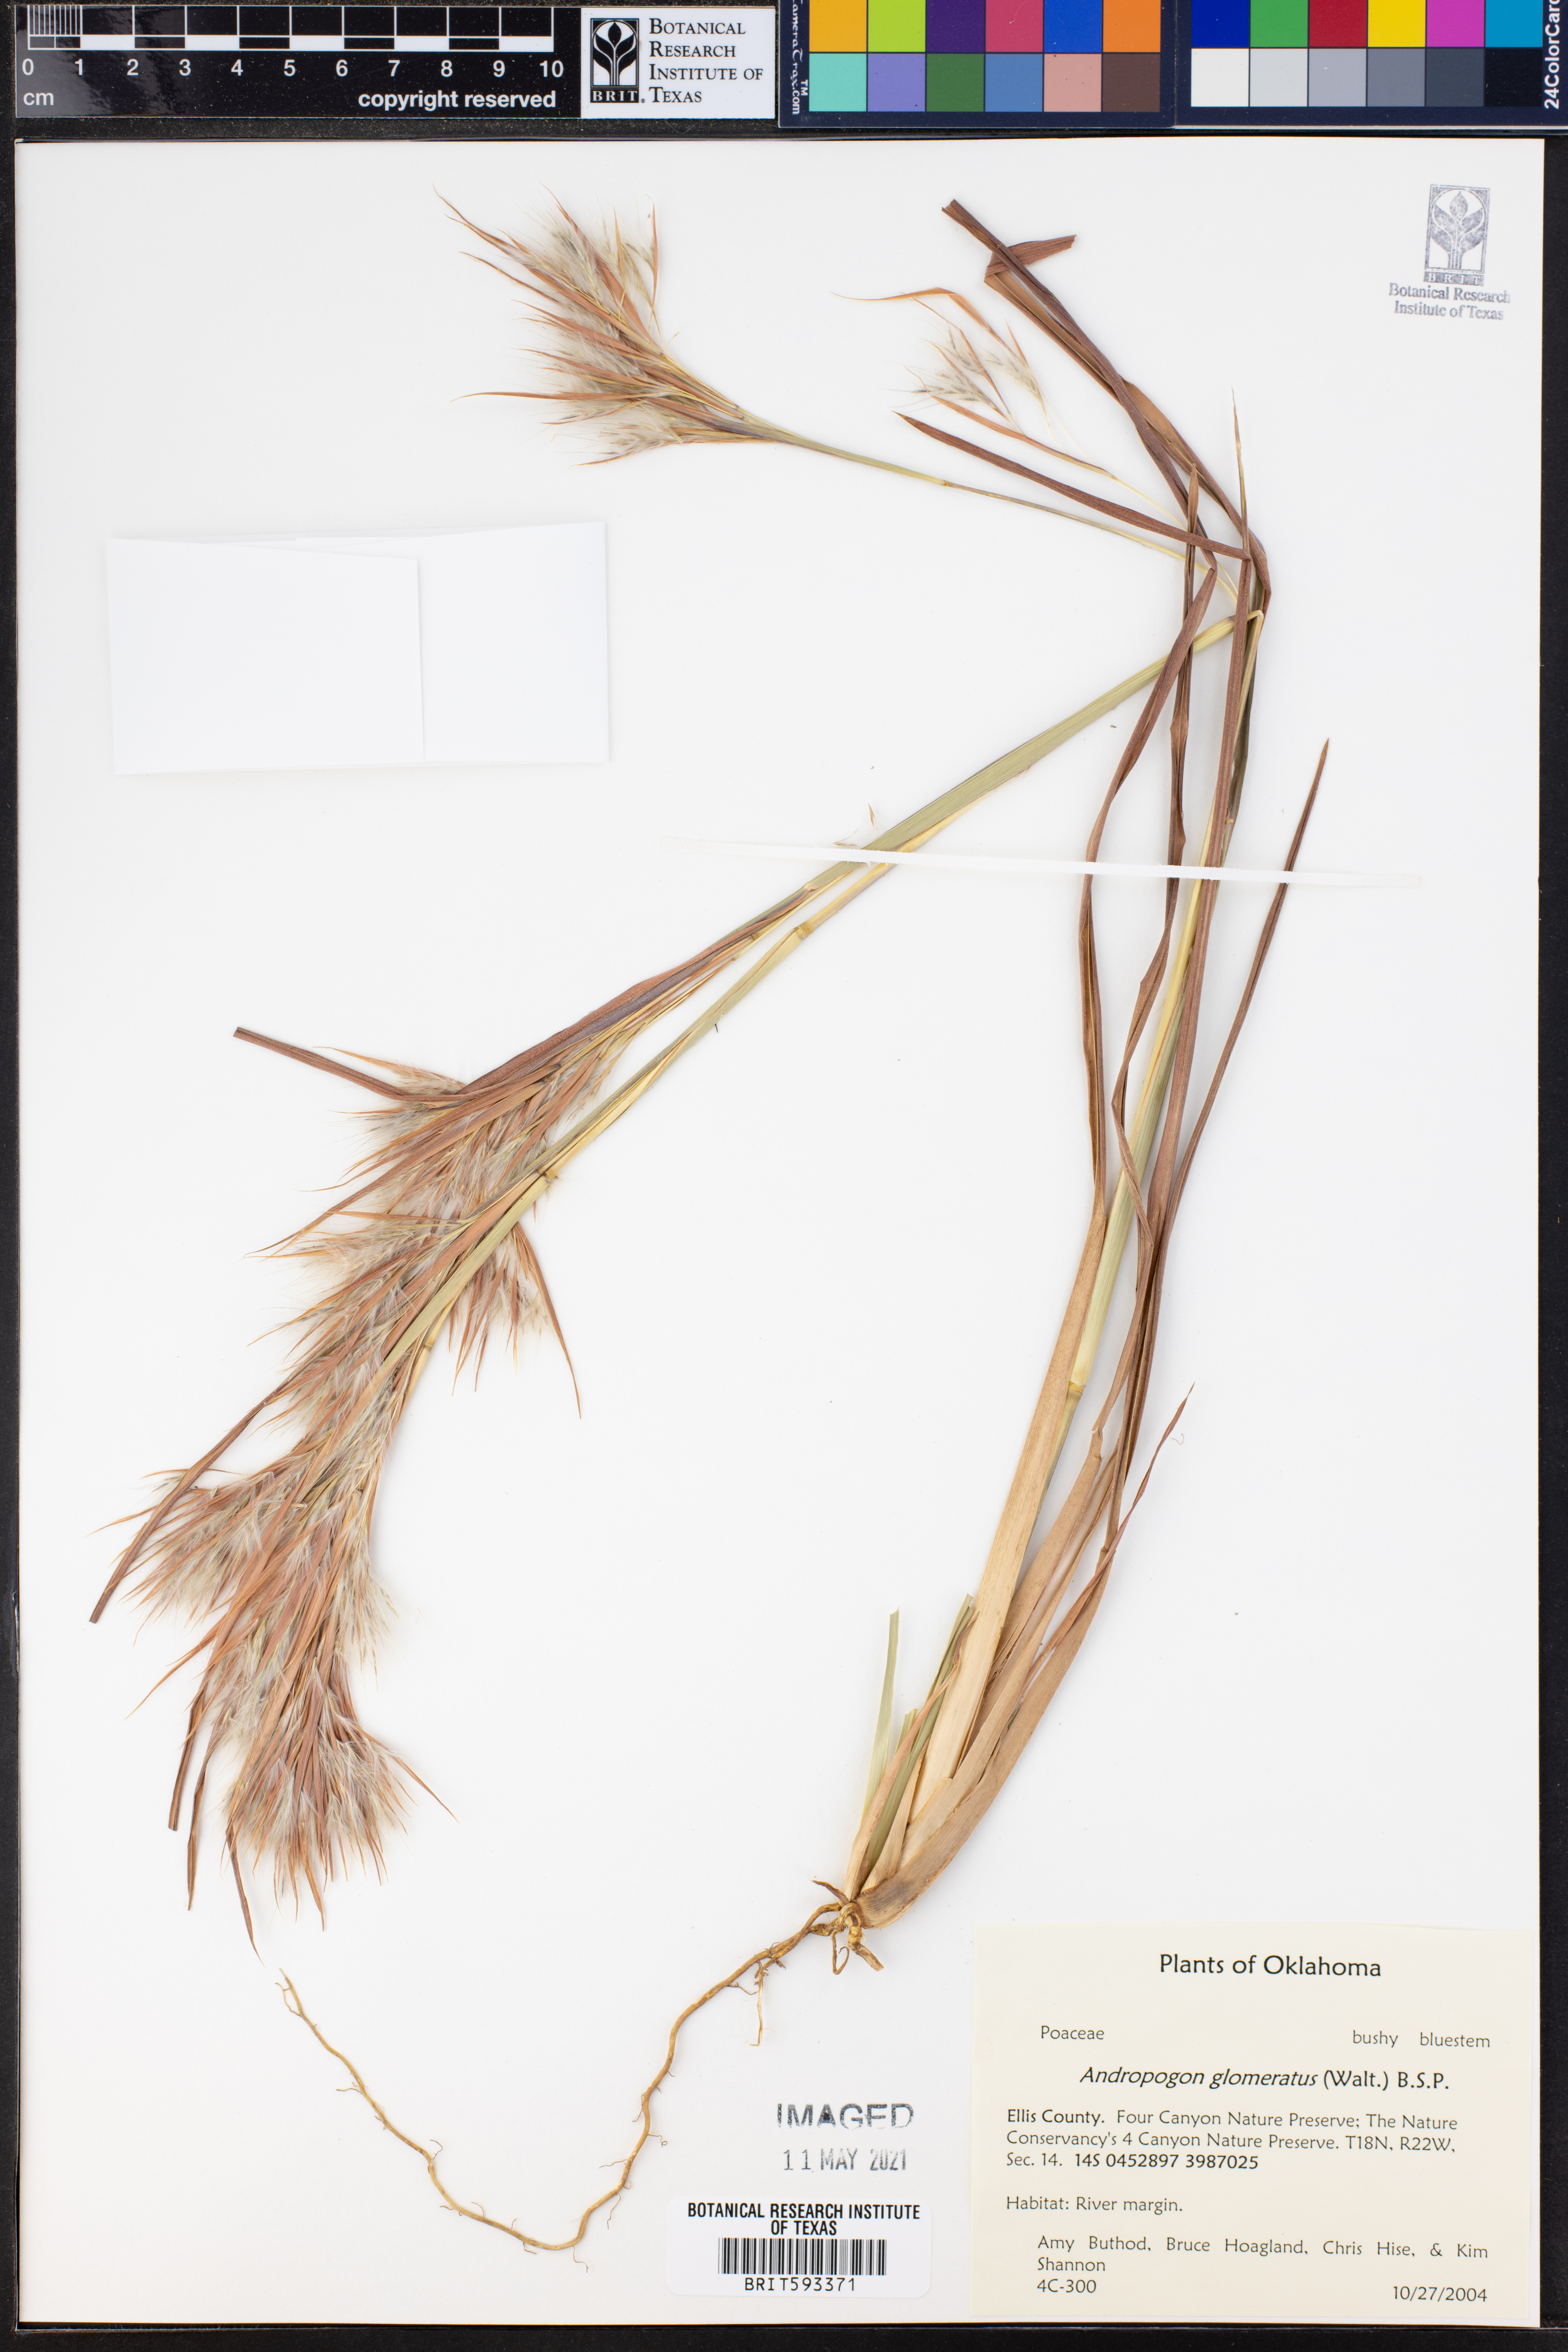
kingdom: Plantae
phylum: Tracheophyta
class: Liliopsida
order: Poales
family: Poaceae
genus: Andropogon
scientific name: Andropogon glomeratus
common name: Bushy beard grass
